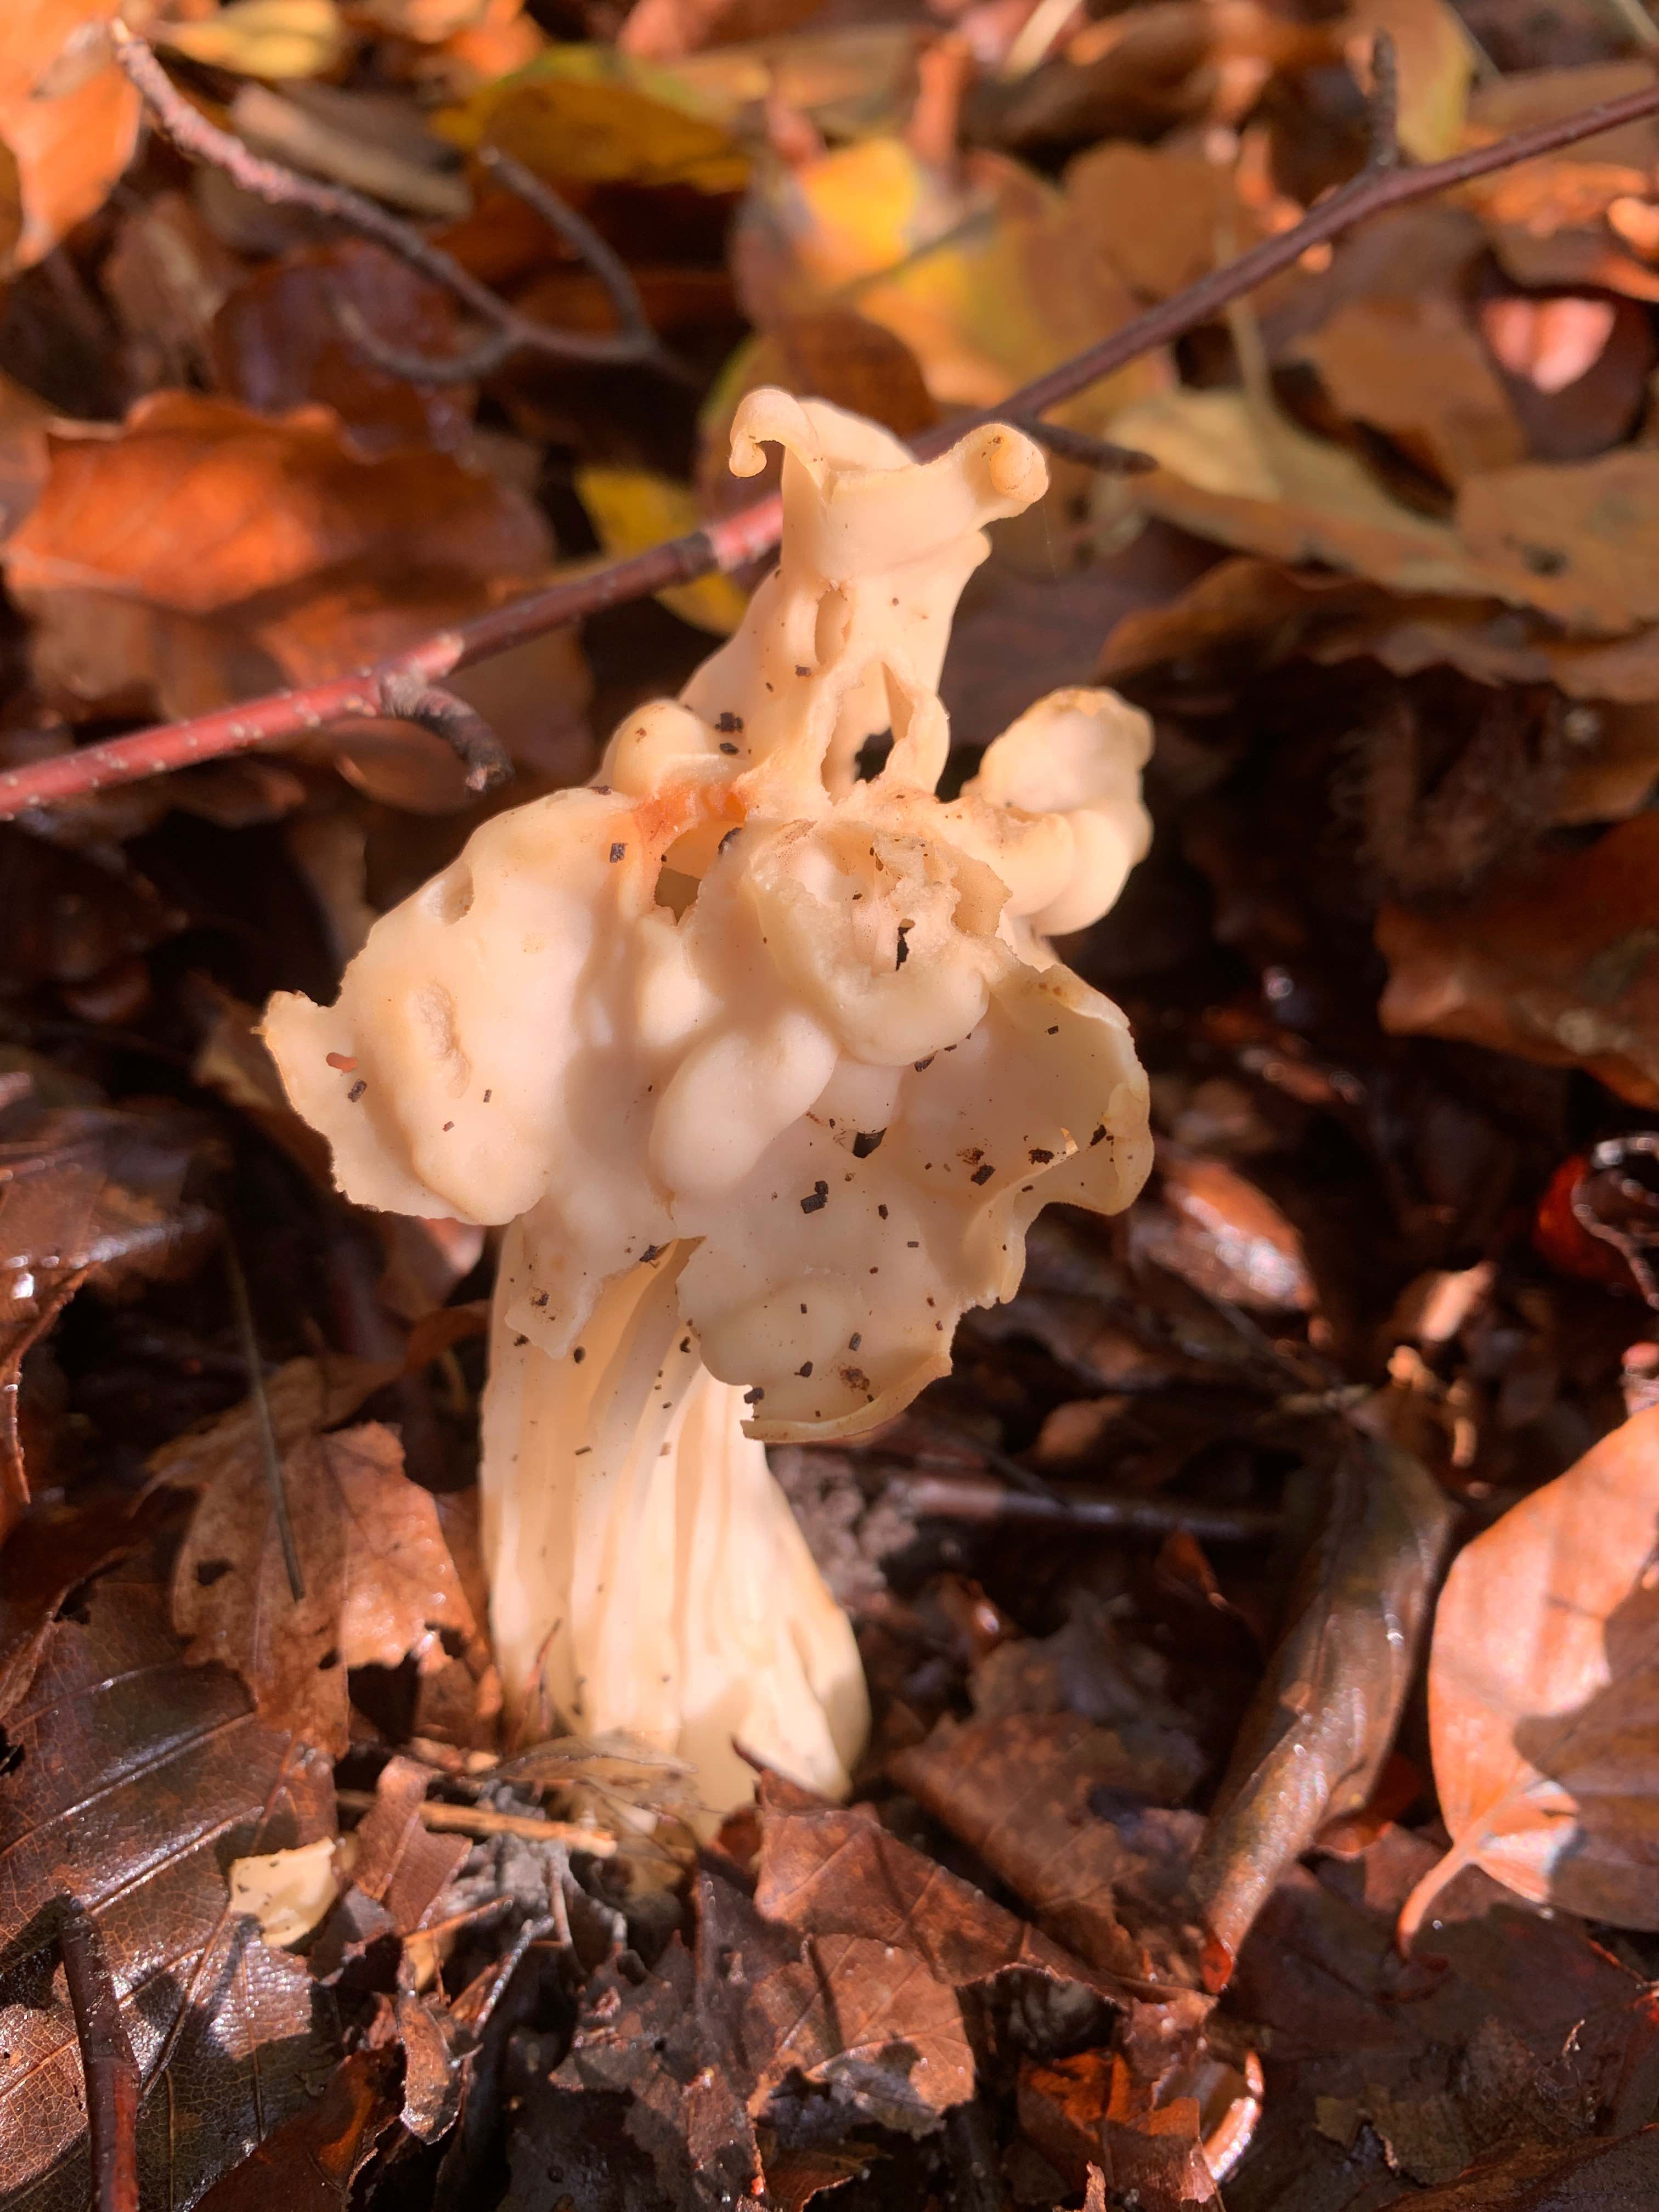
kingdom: Fungi
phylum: Ascomycota
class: Pezizomycetes
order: Pezizales
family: Helvellaceae
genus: Helvella
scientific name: Helvella crispa
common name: kruset foldhat
